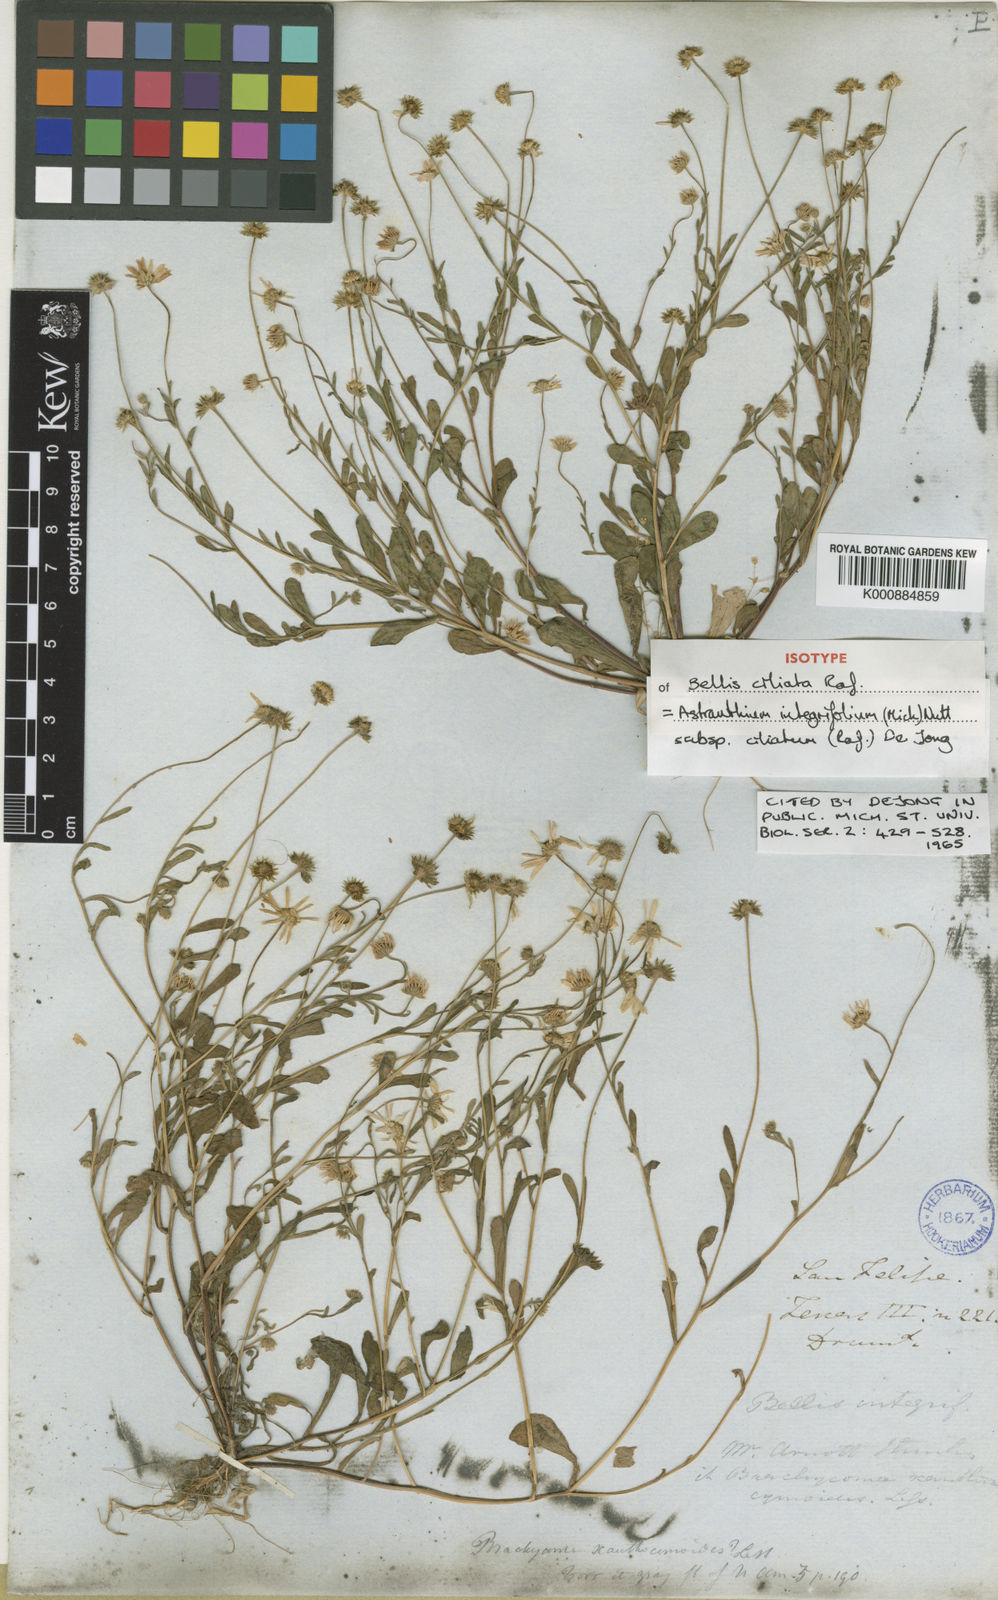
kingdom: Plantae
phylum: Tracheophyta
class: Magnoliopsida
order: Asterales
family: Asteraceae
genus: Astranthium
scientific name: Astranthium
